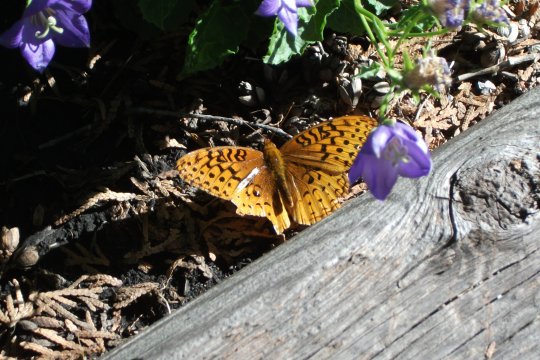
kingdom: Animalia
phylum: Arthropoda
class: Insecta
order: Lepidoptera
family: Nymphalidae
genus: Speyeria
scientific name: Speyeria cybele
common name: Great Spangled Fritillary
